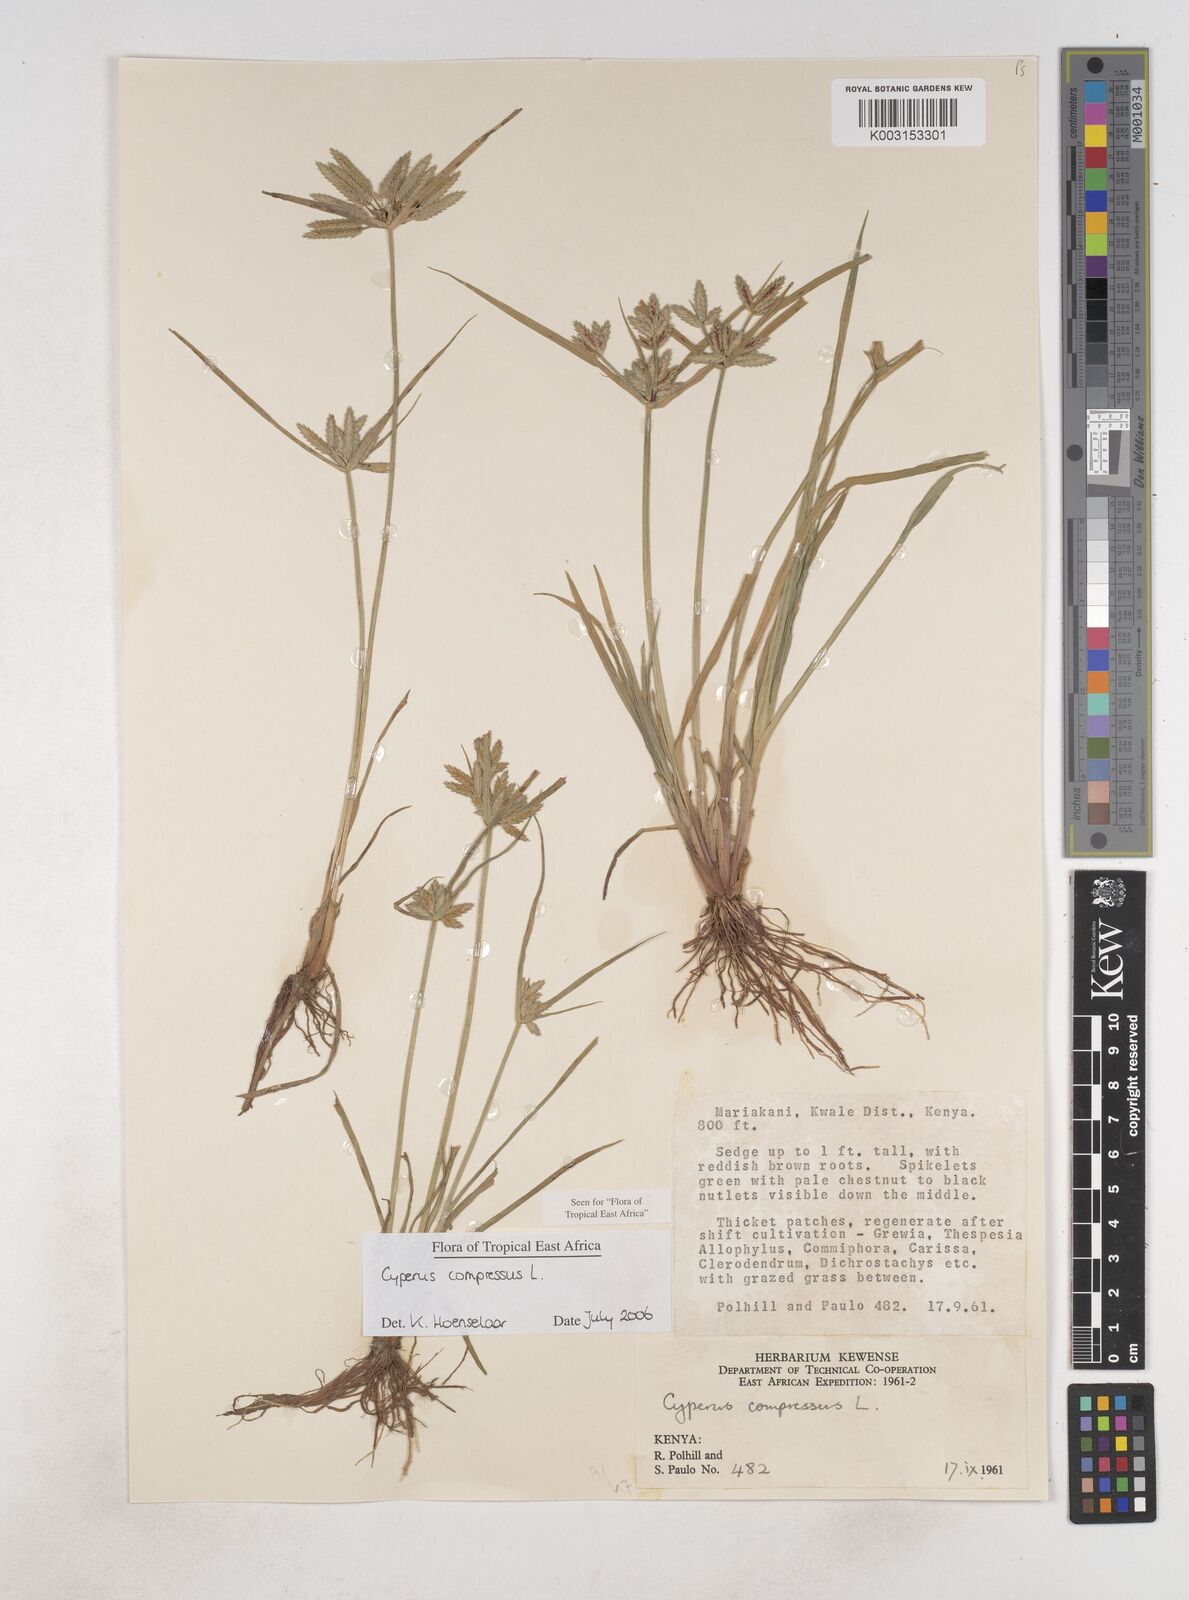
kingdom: Plantae
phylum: Tracheophyta
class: Liliopsida
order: Poales
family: Cyperaceae
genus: Cyperus
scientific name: Cyperus compressus
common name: Poorland flatsedge
